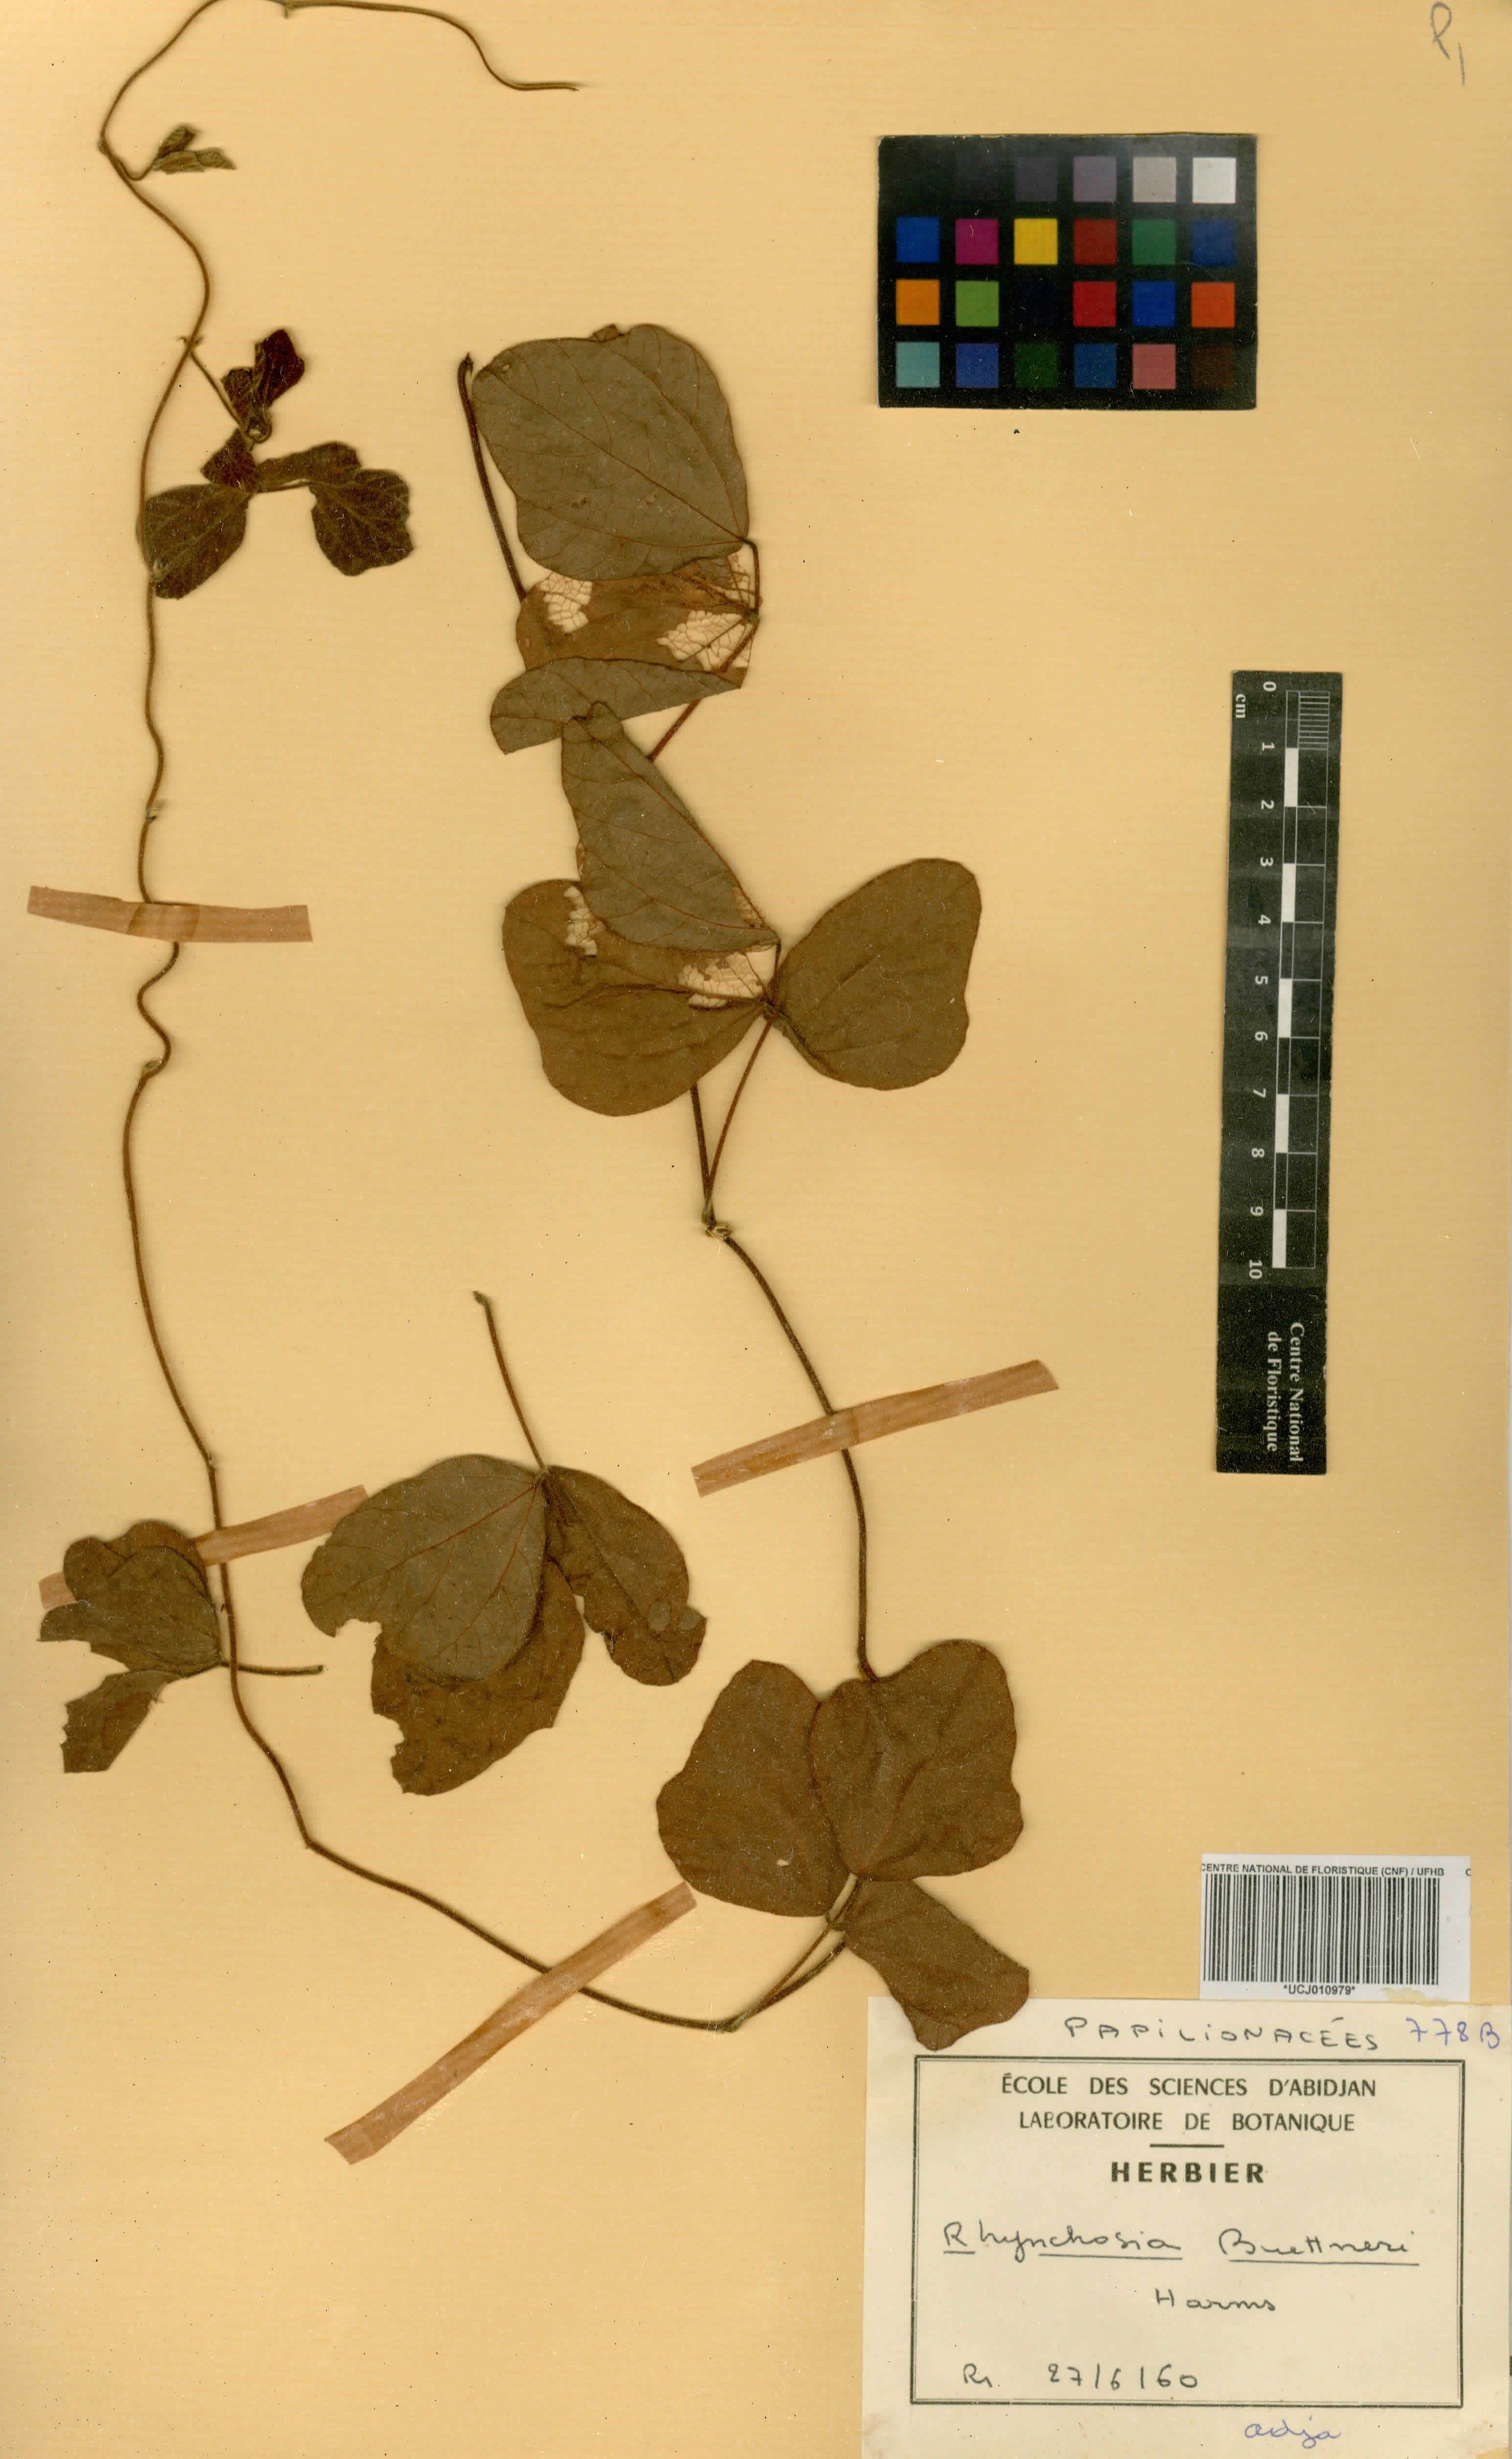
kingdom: Plantae
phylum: Tracheophyta
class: Magnoliopsida
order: Fabales
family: Fabaceae
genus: Rhynchosia
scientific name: Rhynchosia buettneri
